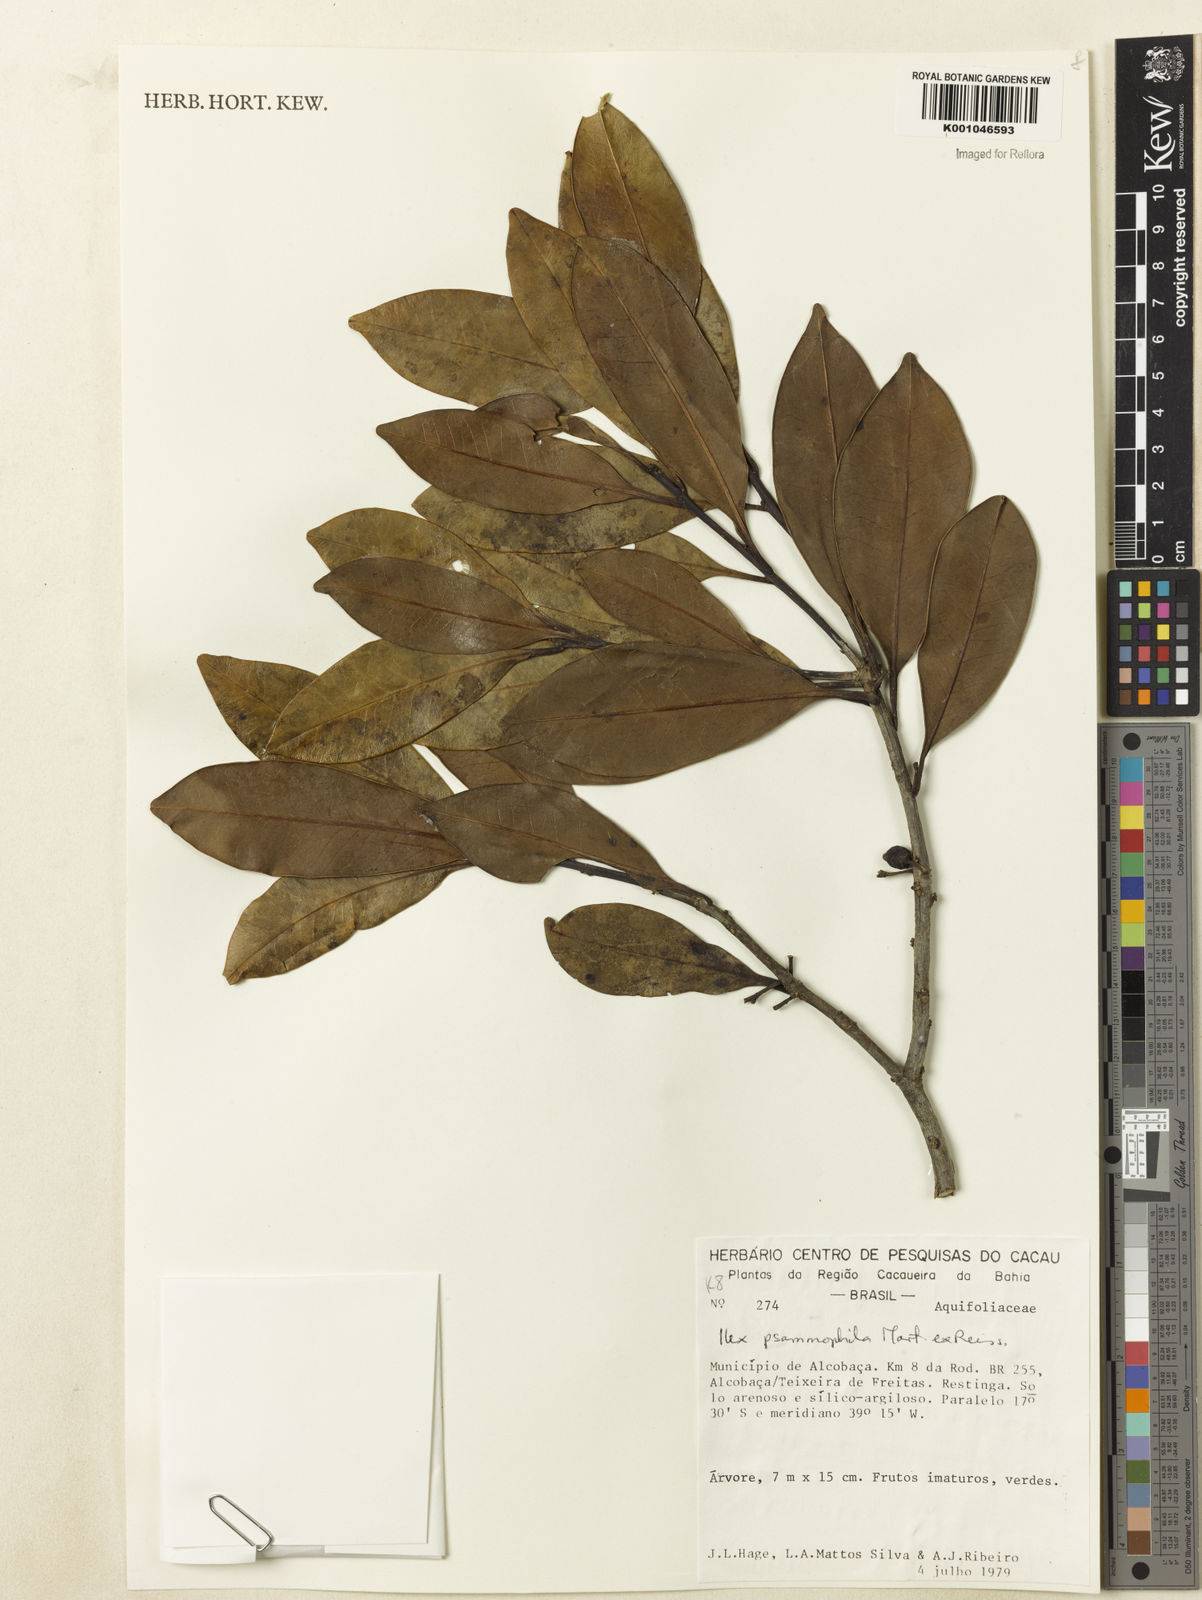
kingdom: Plantae
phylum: Tracheophyta
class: Magnoliopsida
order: Aquifoliales
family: Aquifoliaceae
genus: Ilex
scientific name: Ilex psammophila
